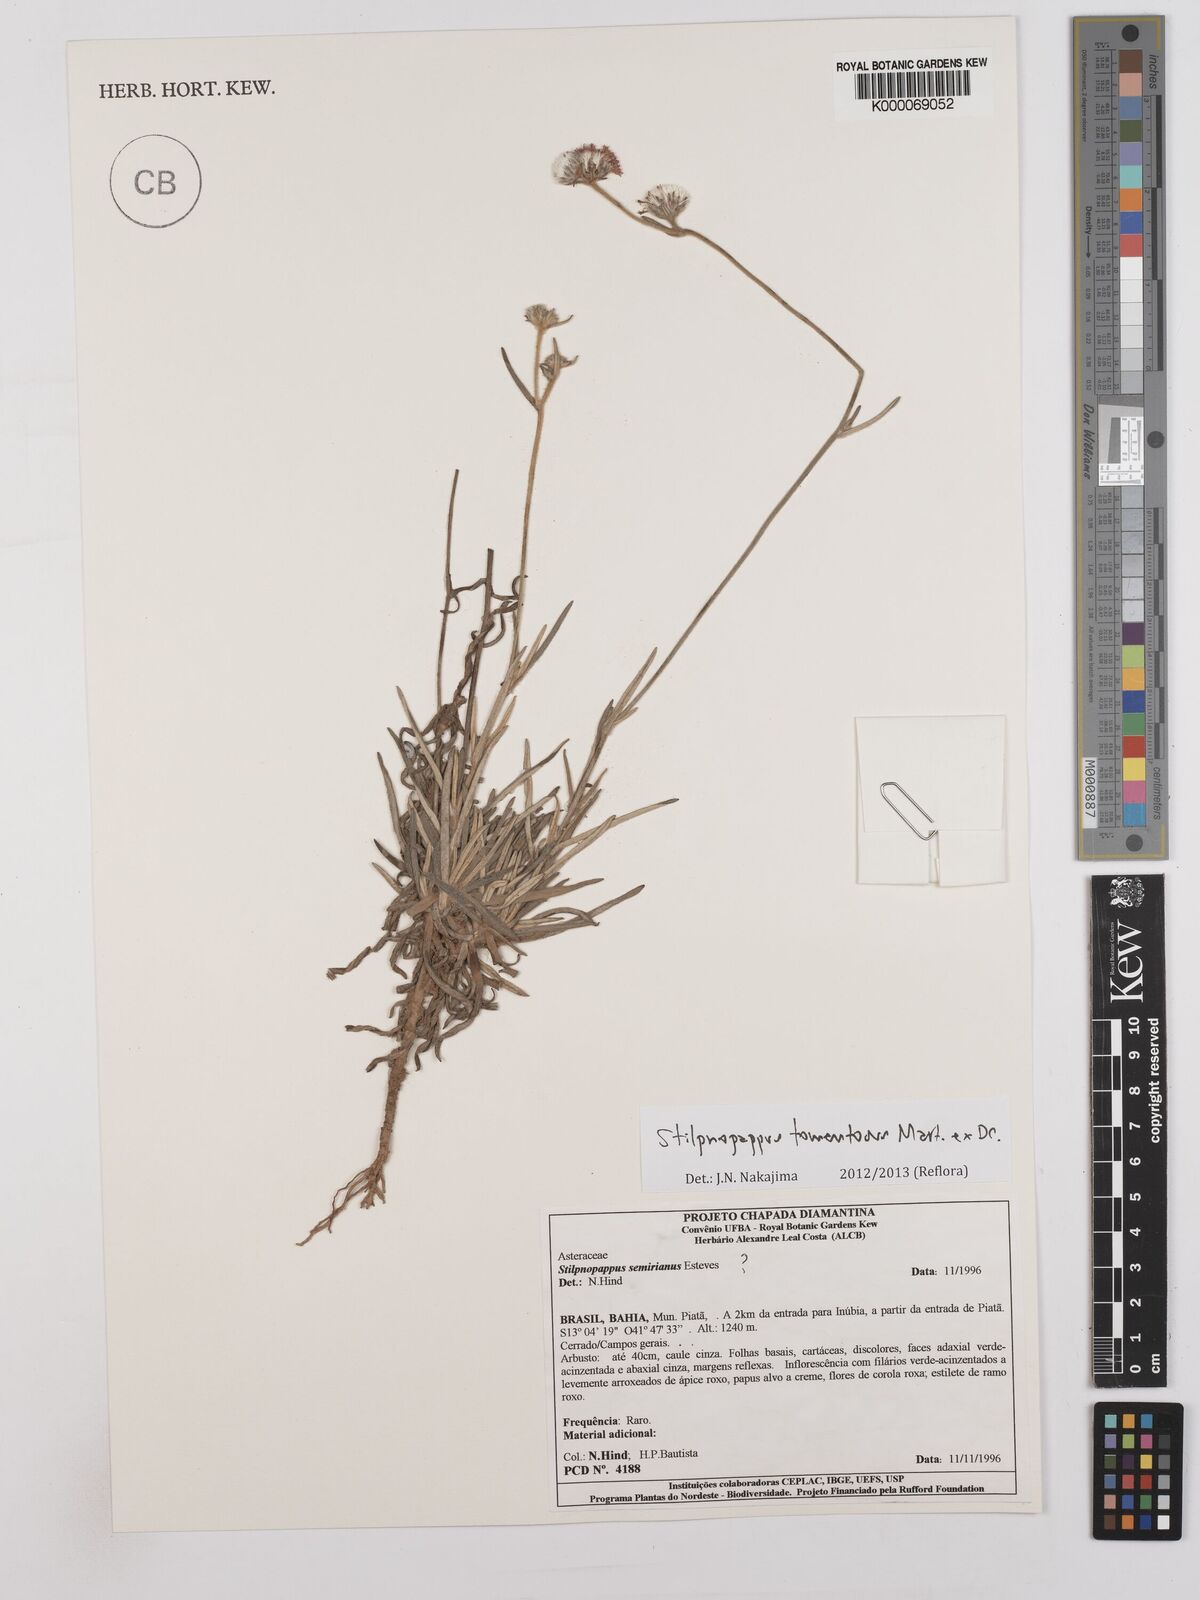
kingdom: Plantae
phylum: Tracheophyta
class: Magnoliopsida
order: Asterales
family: Asteraceae
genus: Stilpnopappus
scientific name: Stilpnopappus semirianus
